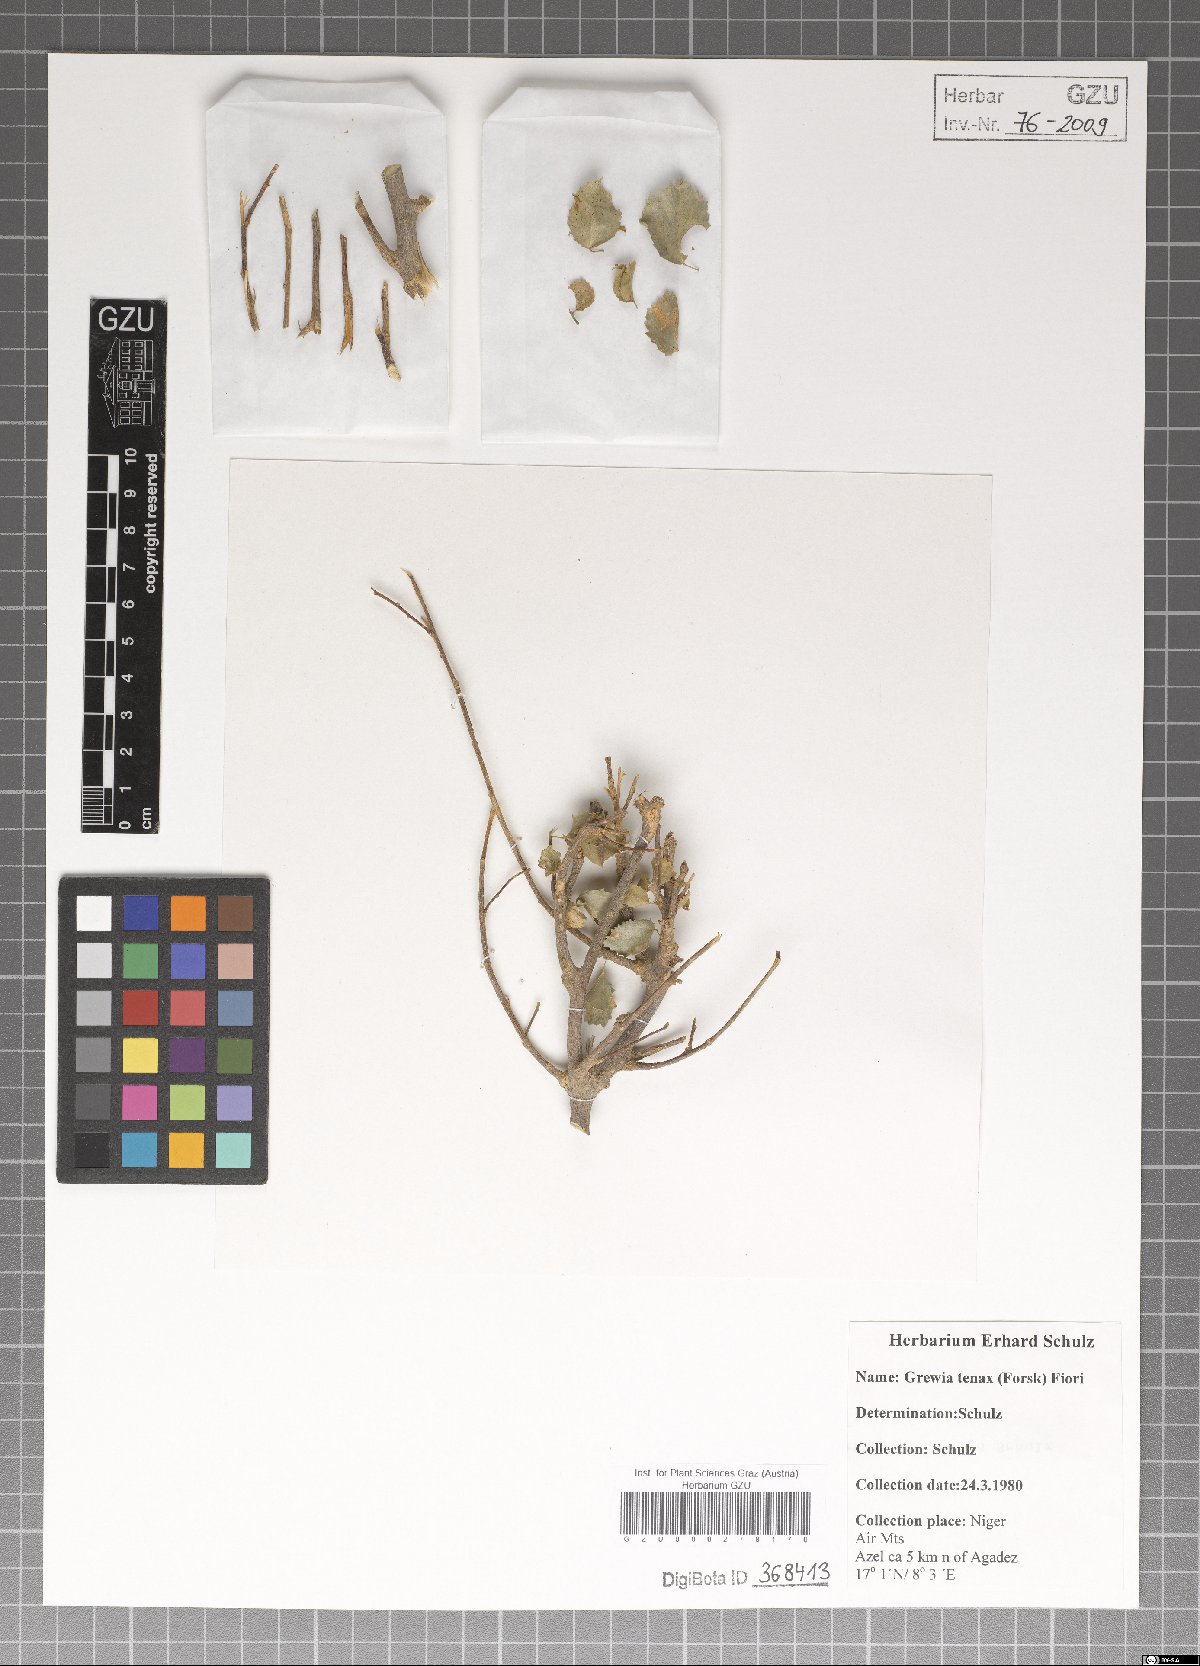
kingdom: Plantae
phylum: Tracheophyta
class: Magnoliopsida
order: Malvales
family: Malvaceae
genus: Grewia
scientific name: Grewia tenax
